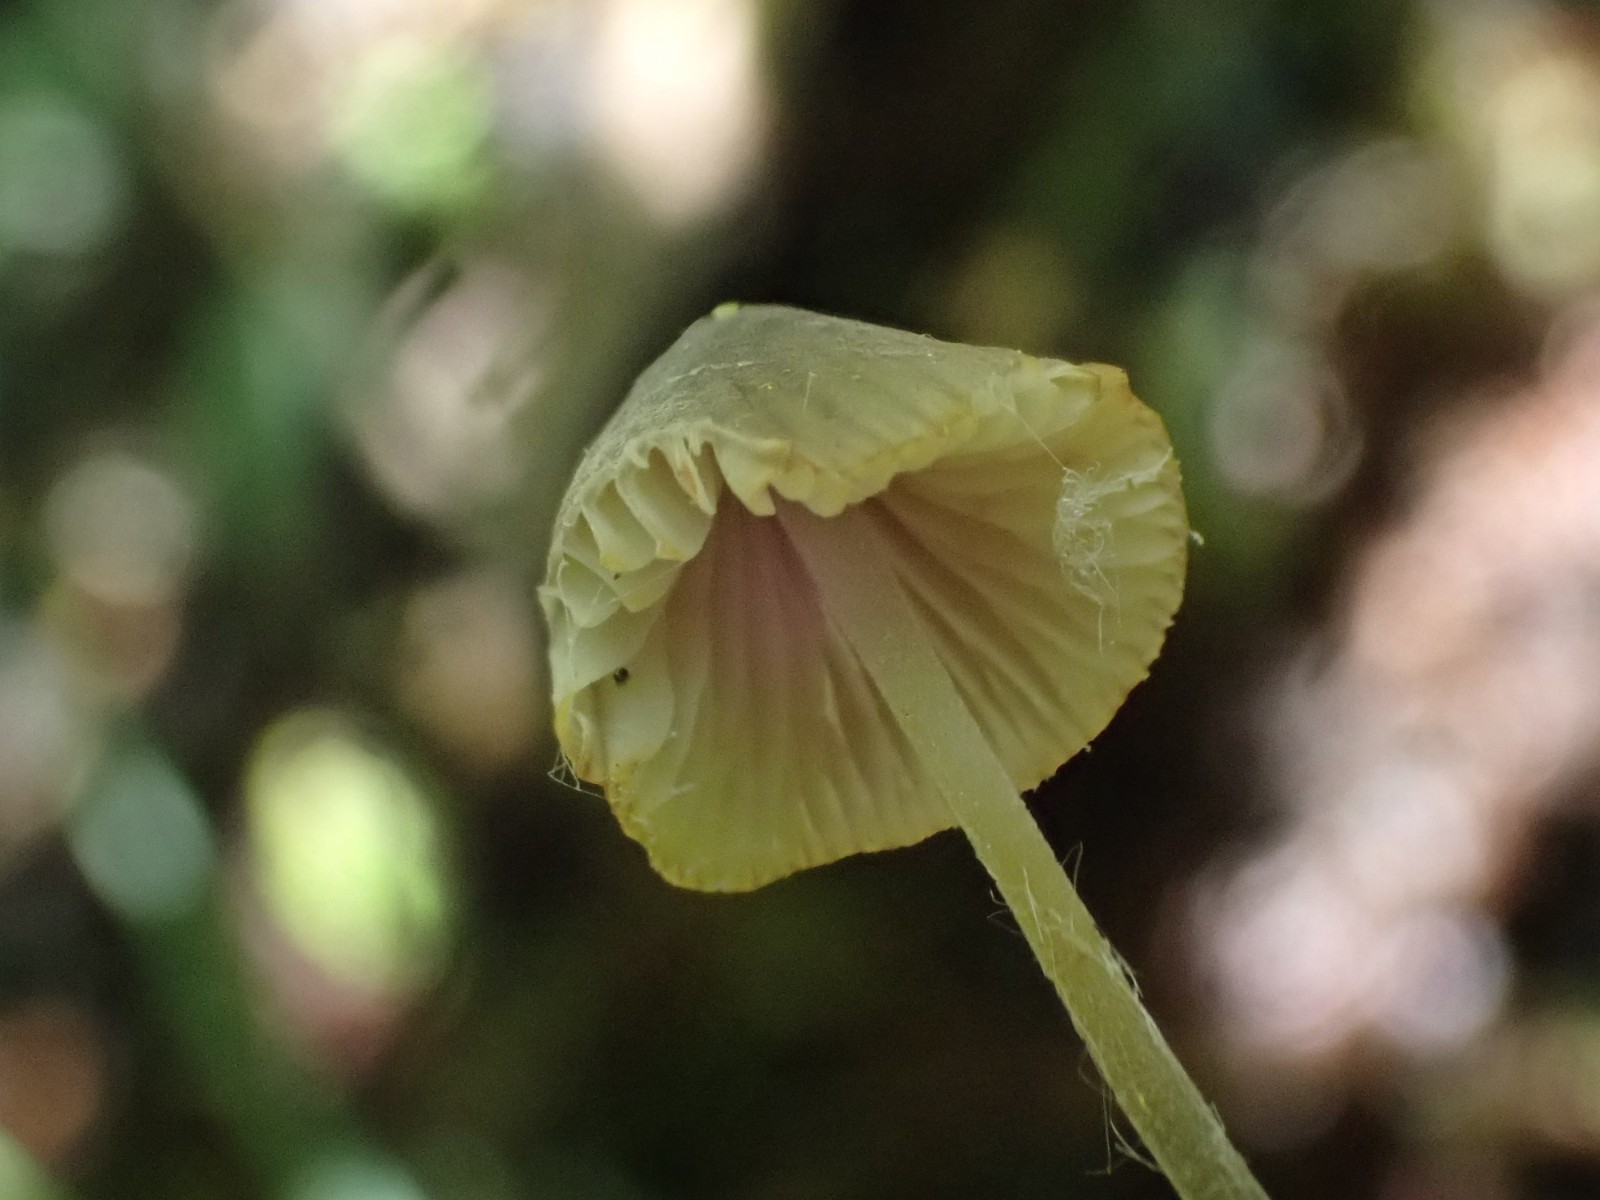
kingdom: Fungi
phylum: Basidiomycota
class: Agaricomycetes
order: Agaricales
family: Mycenaceae
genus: Mycena
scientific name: Mycena
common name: huesvamp
